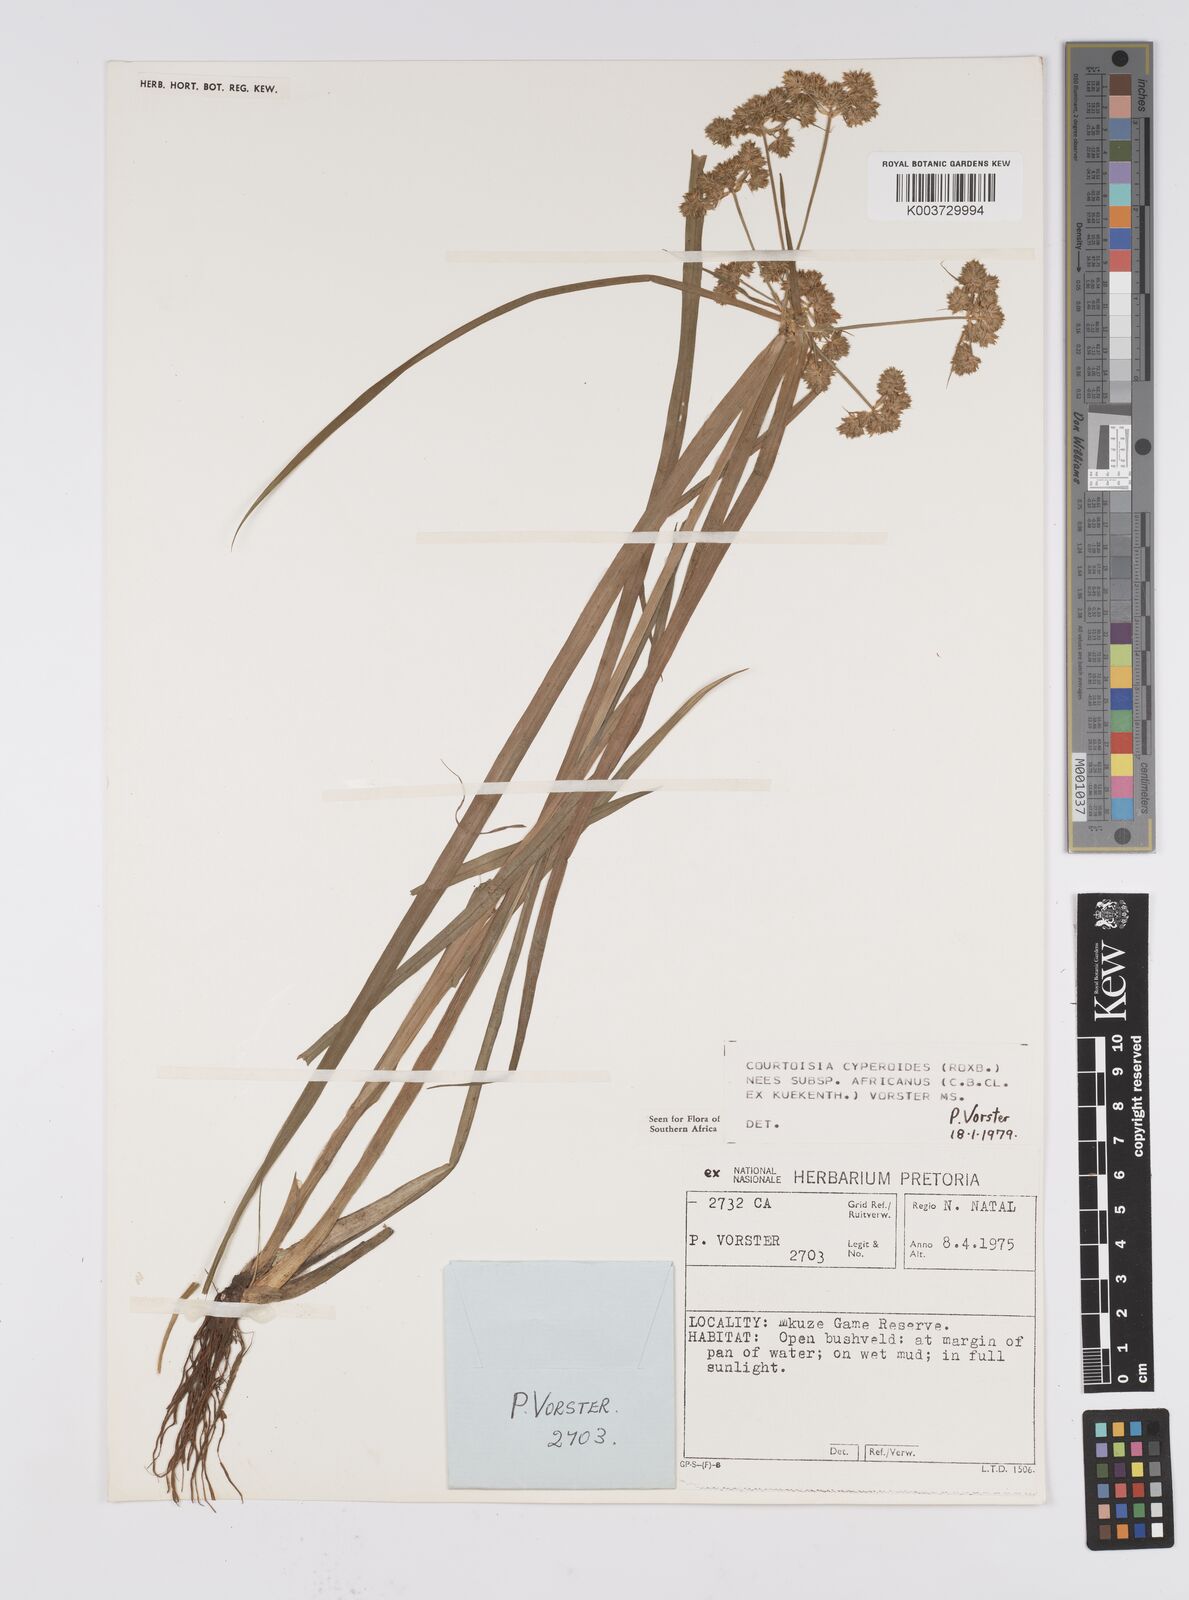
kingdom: Plantae
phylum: Tracheophyta
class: Liliopsida
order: Poales
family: Cyperaceae
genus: Cyperus
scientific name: Cyperus cyperoides
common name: Pacific island flat sedge
